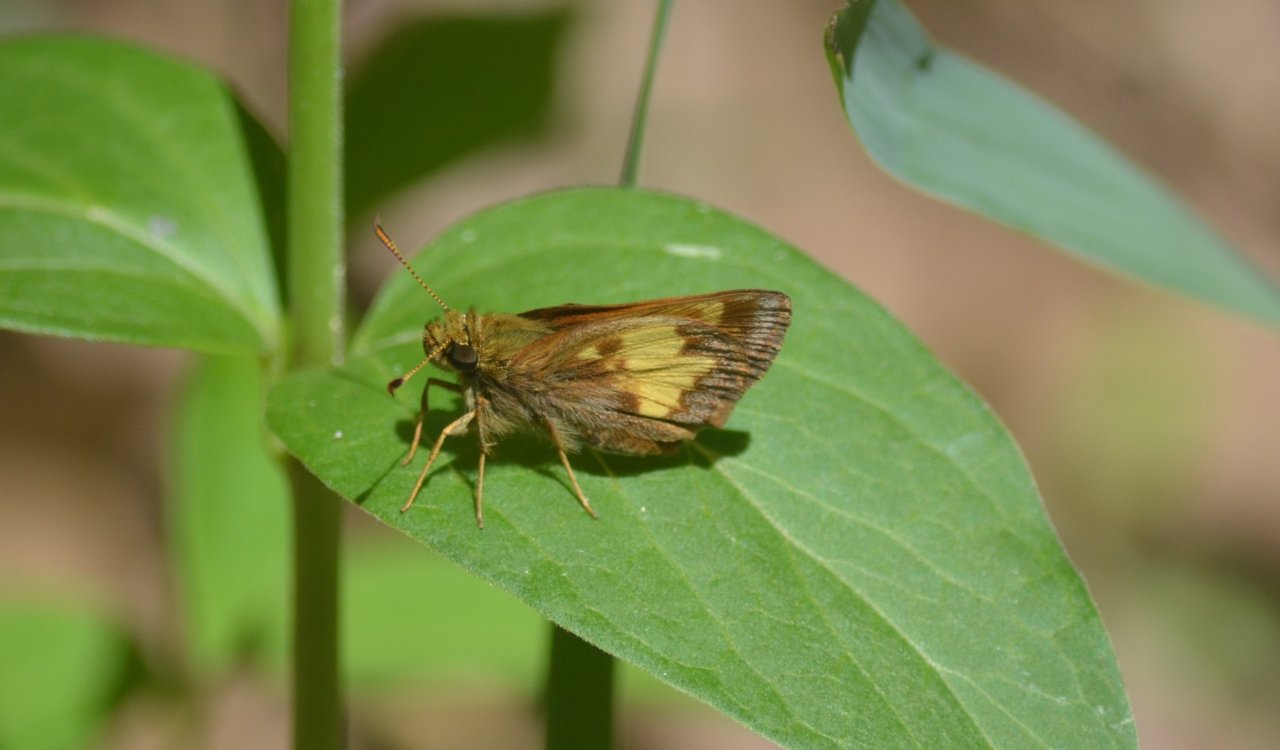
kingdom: Animalia
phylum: Arthropoda
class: Insecta
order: Lepidoptera
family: Hesperiidae
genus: Polites
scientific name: Polites coras
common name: Peck's Skipper
